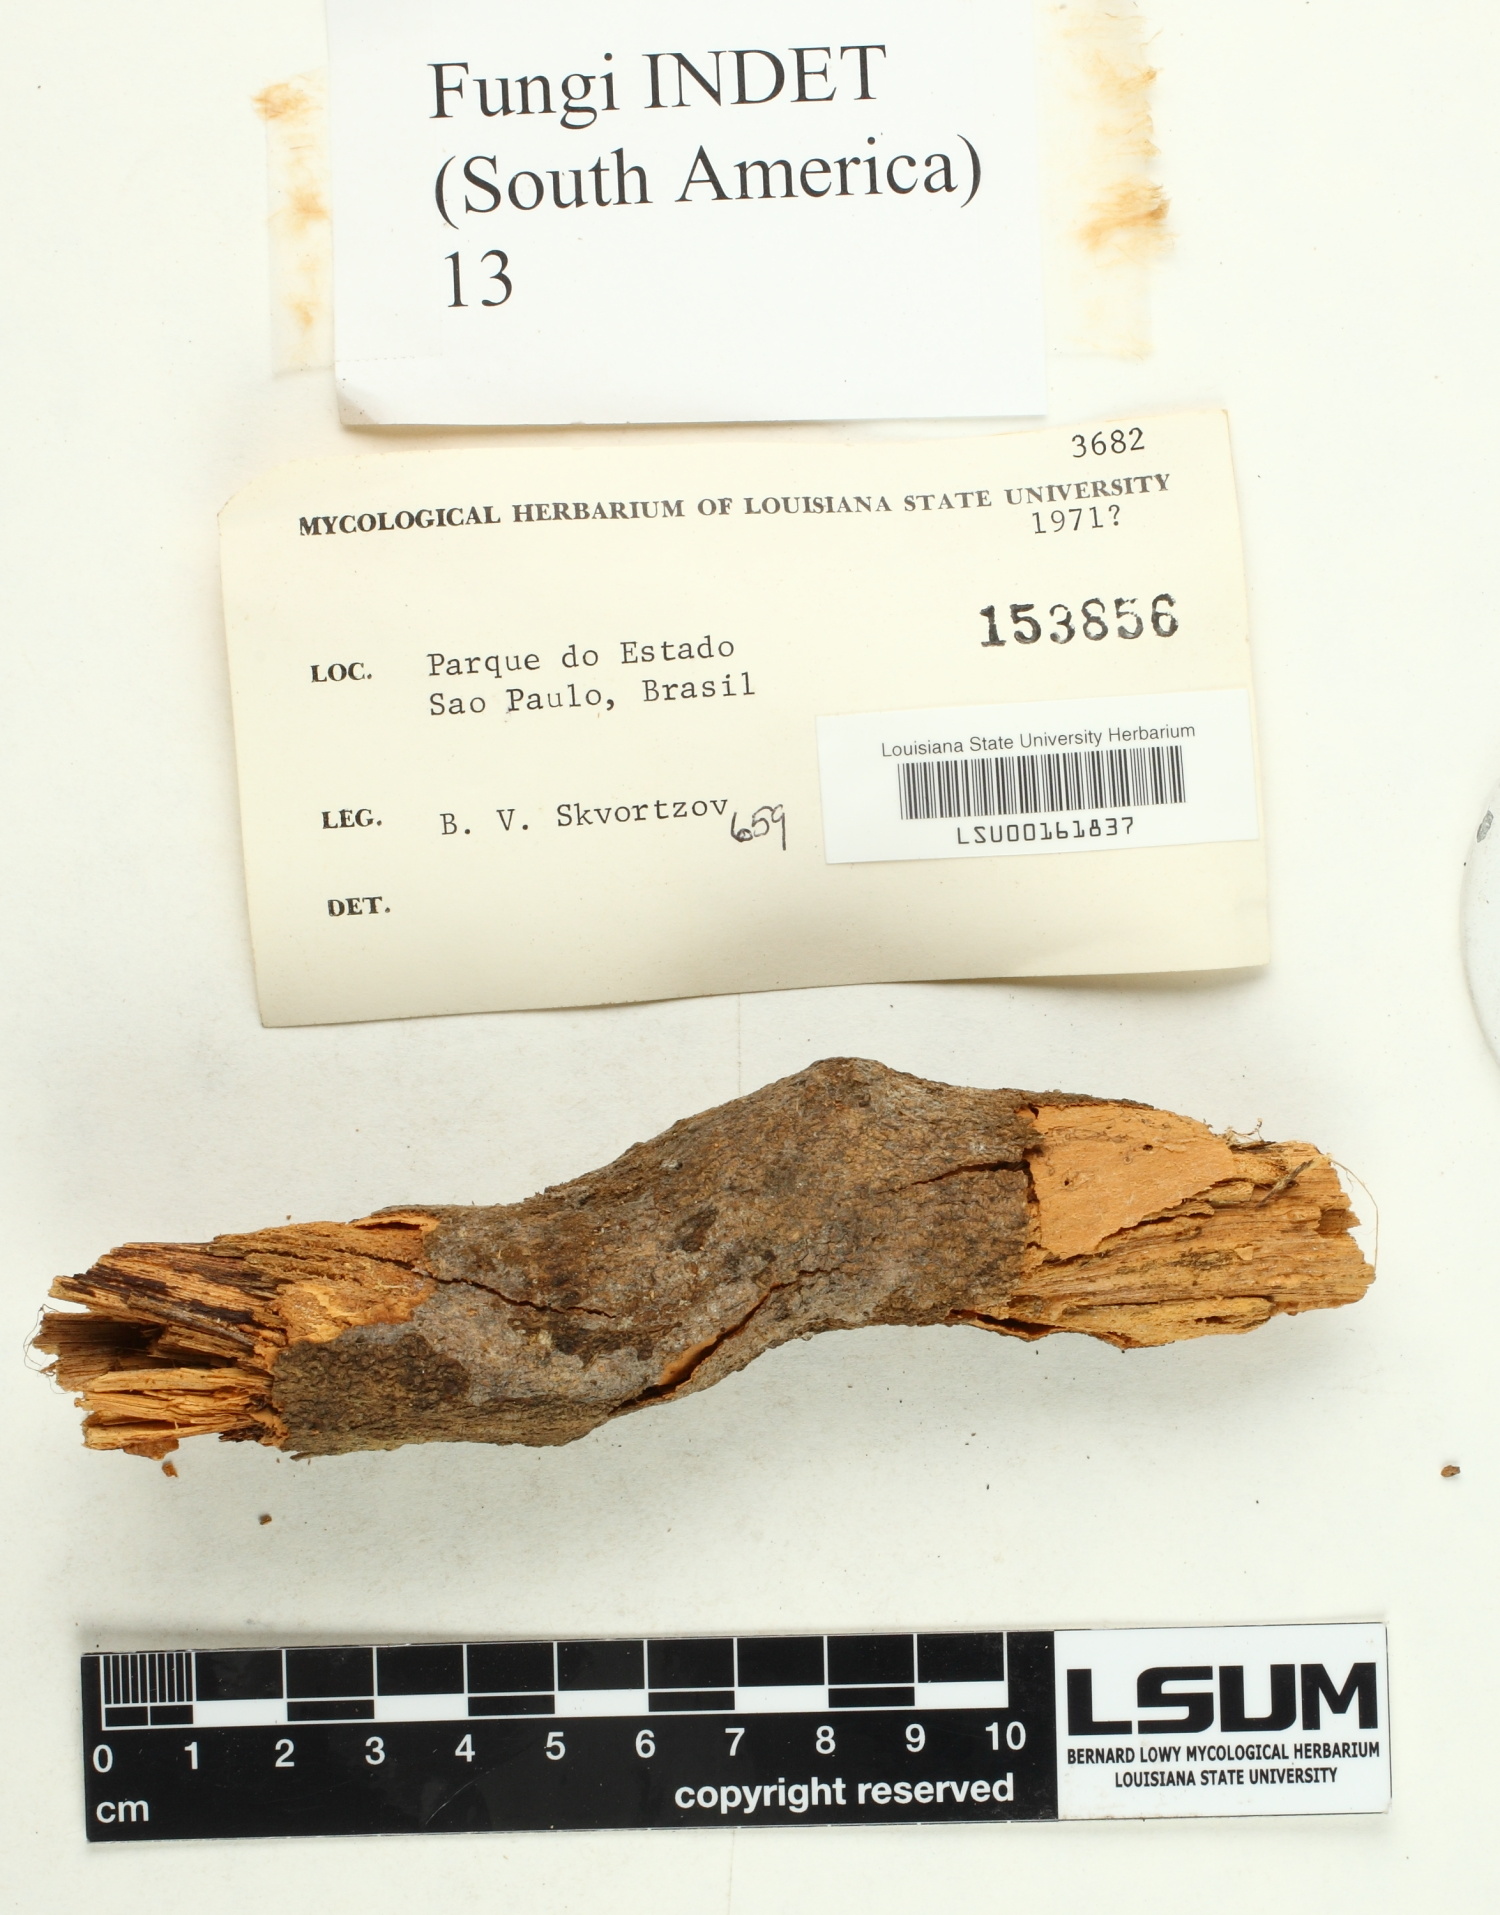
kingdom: Fungi
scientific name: Fungi
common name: Fungi
